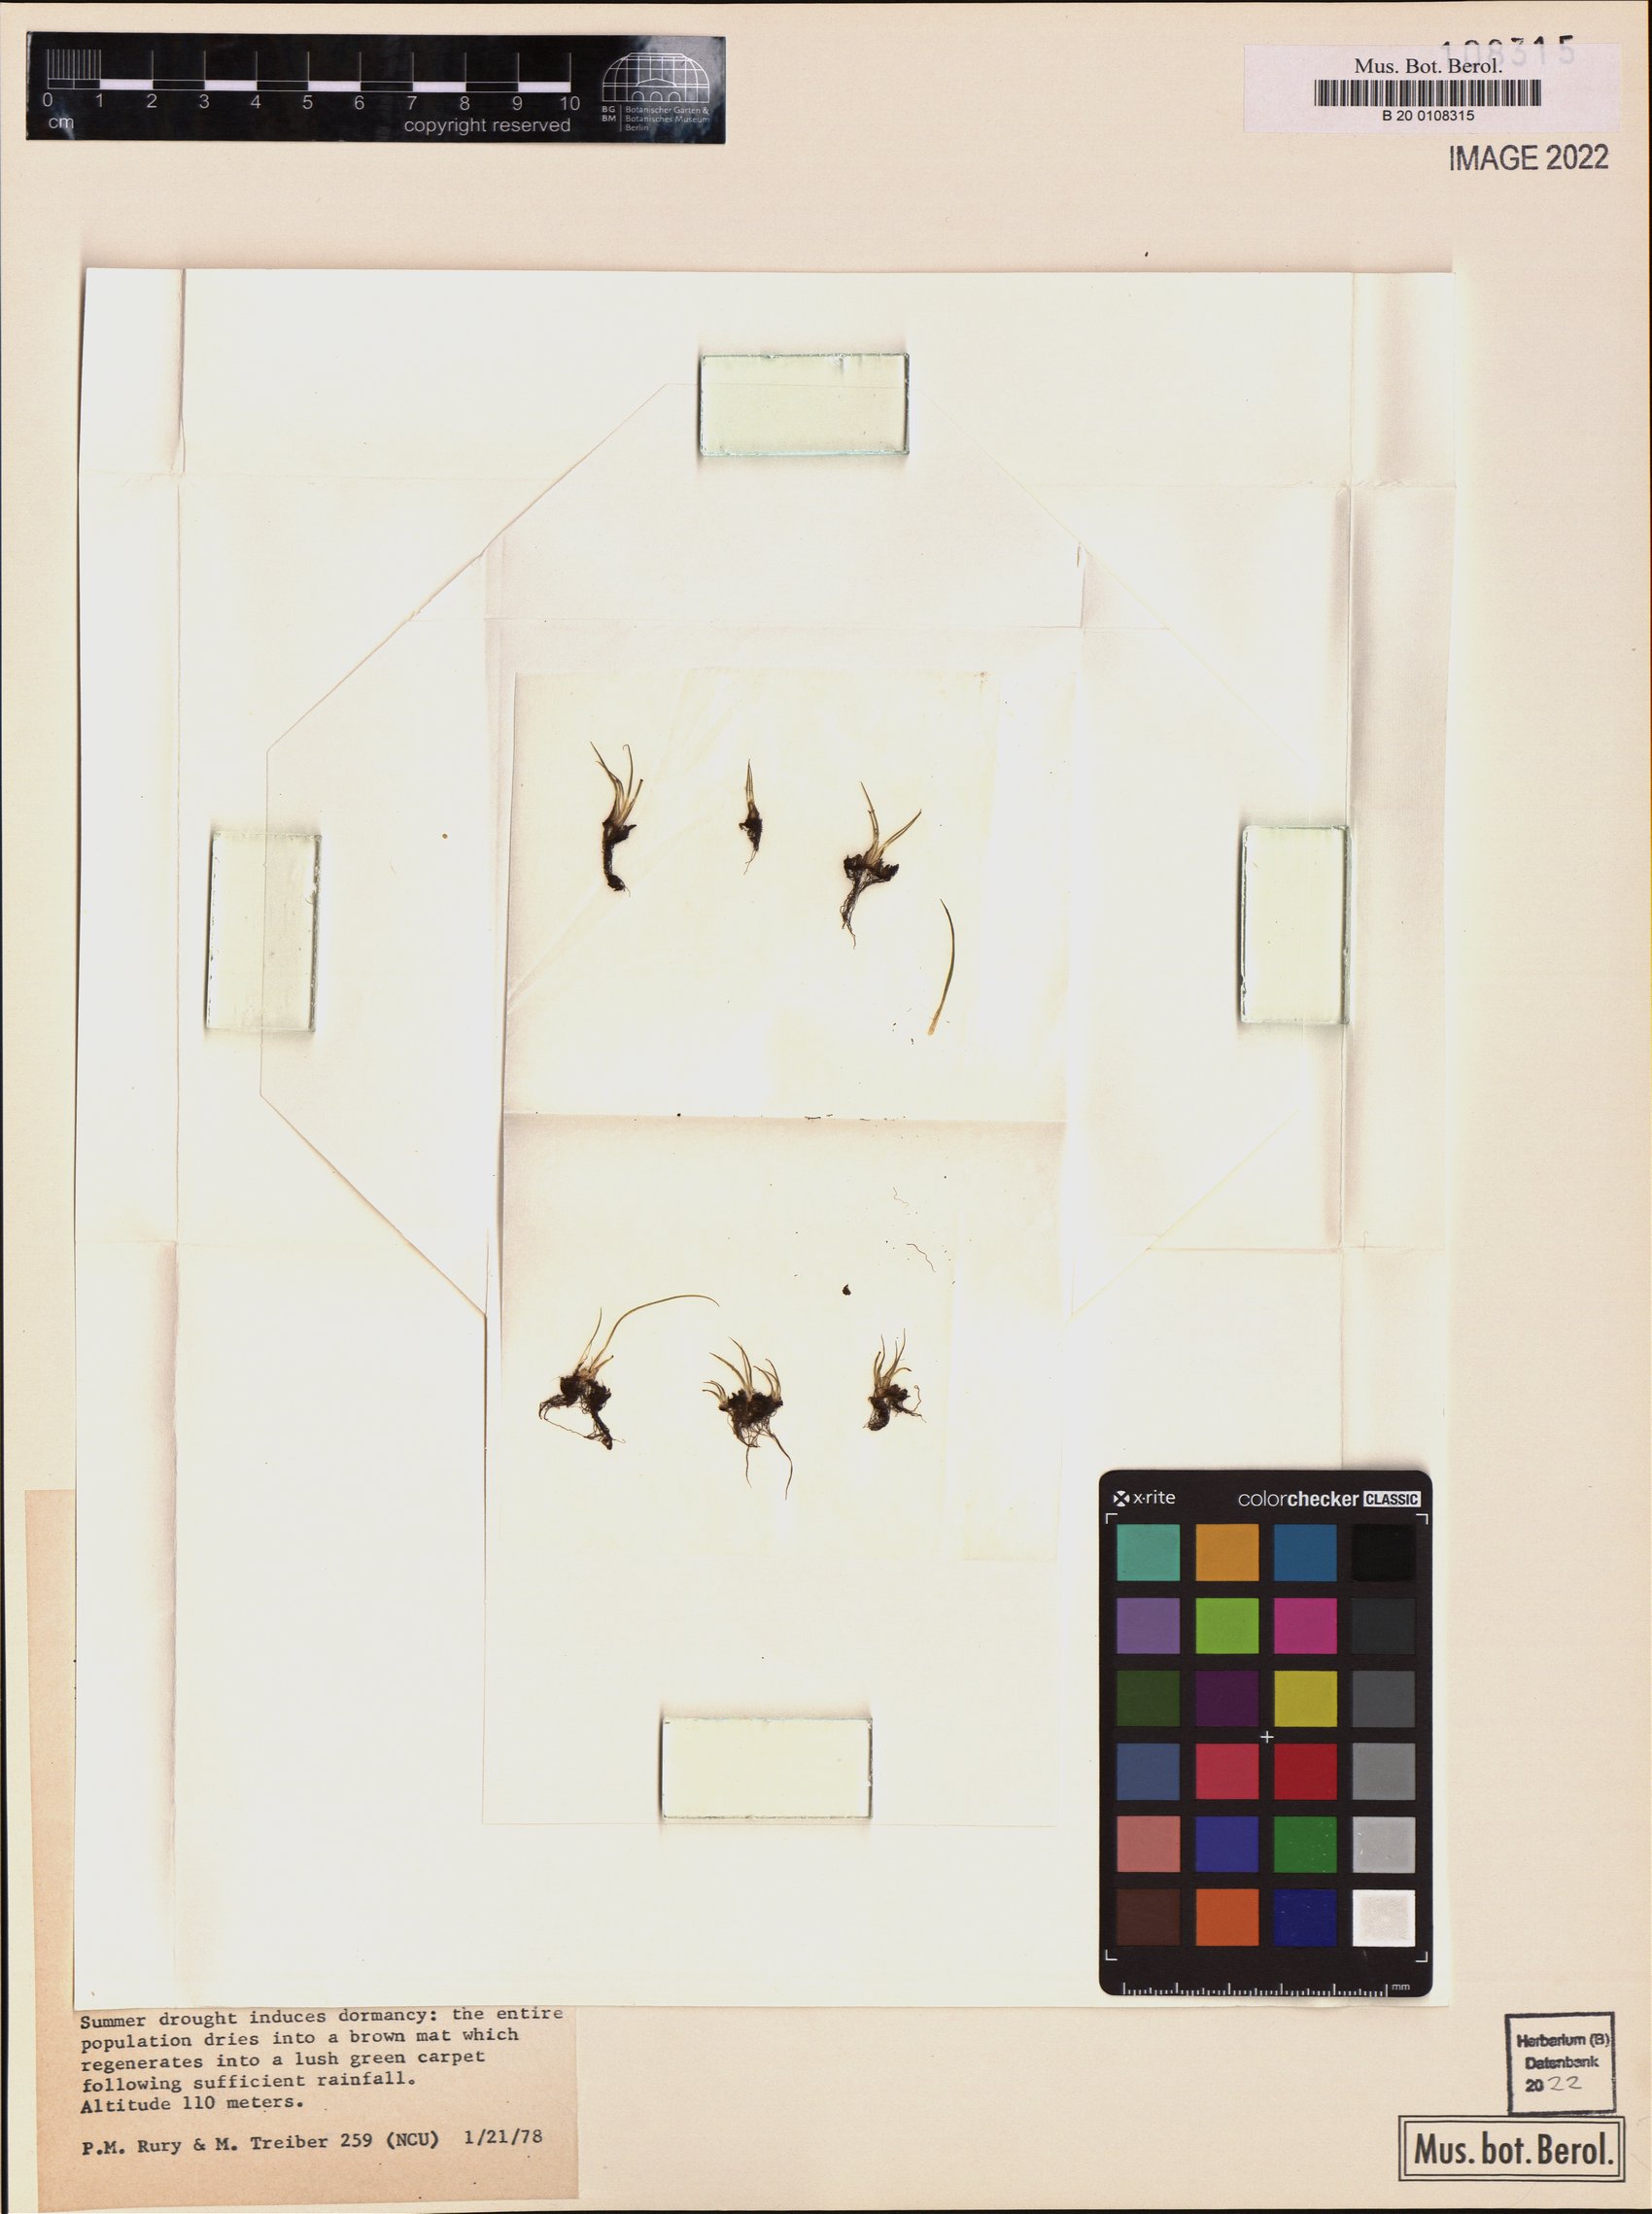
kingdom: Plantae
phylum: Tracheophyta
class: Lycopodiopsida
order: Isoetales
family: Isoetaceae
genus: Isoetes
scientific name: Isoetes tegetiformans
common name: Matform quillwort
